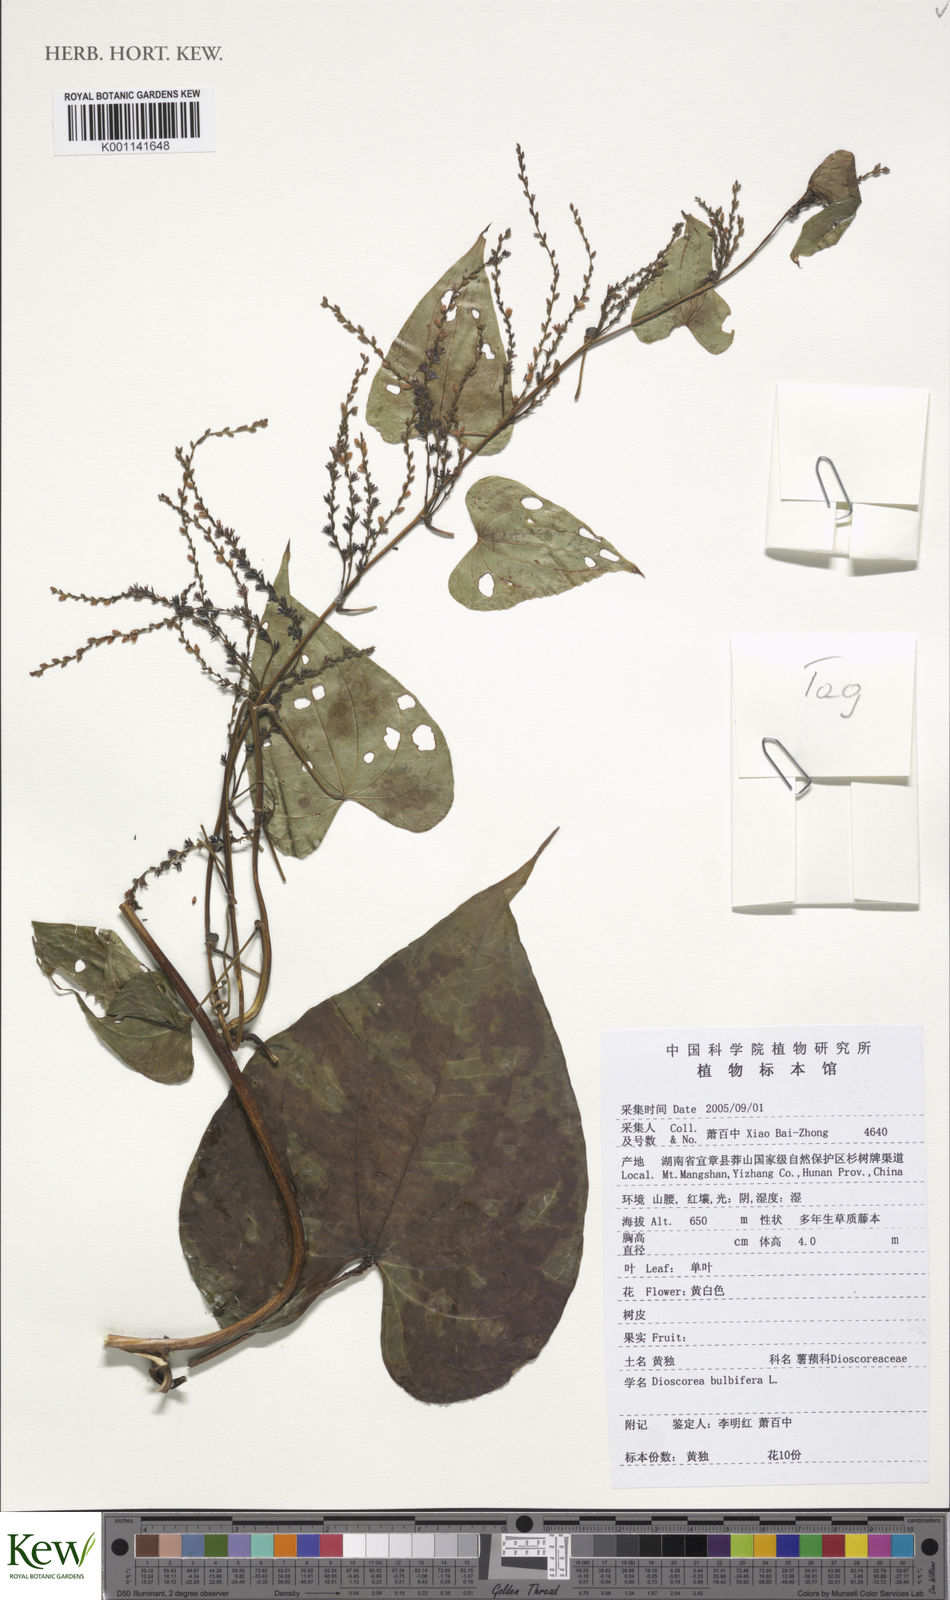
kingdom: Plantae
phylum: Tracheophyta
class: Liliopsida
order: Dioscoreales
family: Dioscoreaceae
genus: Dioscorea
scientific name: Dioscorea bulbifera
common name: Air yam
